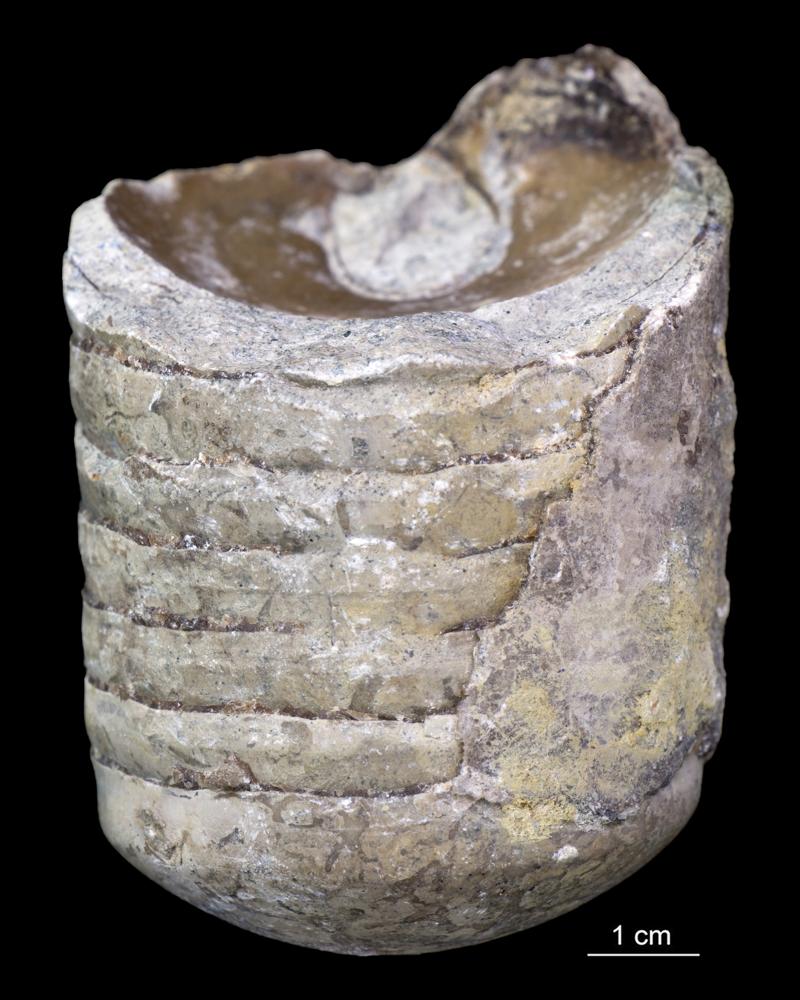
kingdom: Animalia
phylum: Mollusca
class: Cephalopoda
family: Estonioceratidae
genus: Estonioceras
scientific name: Estonioceras
